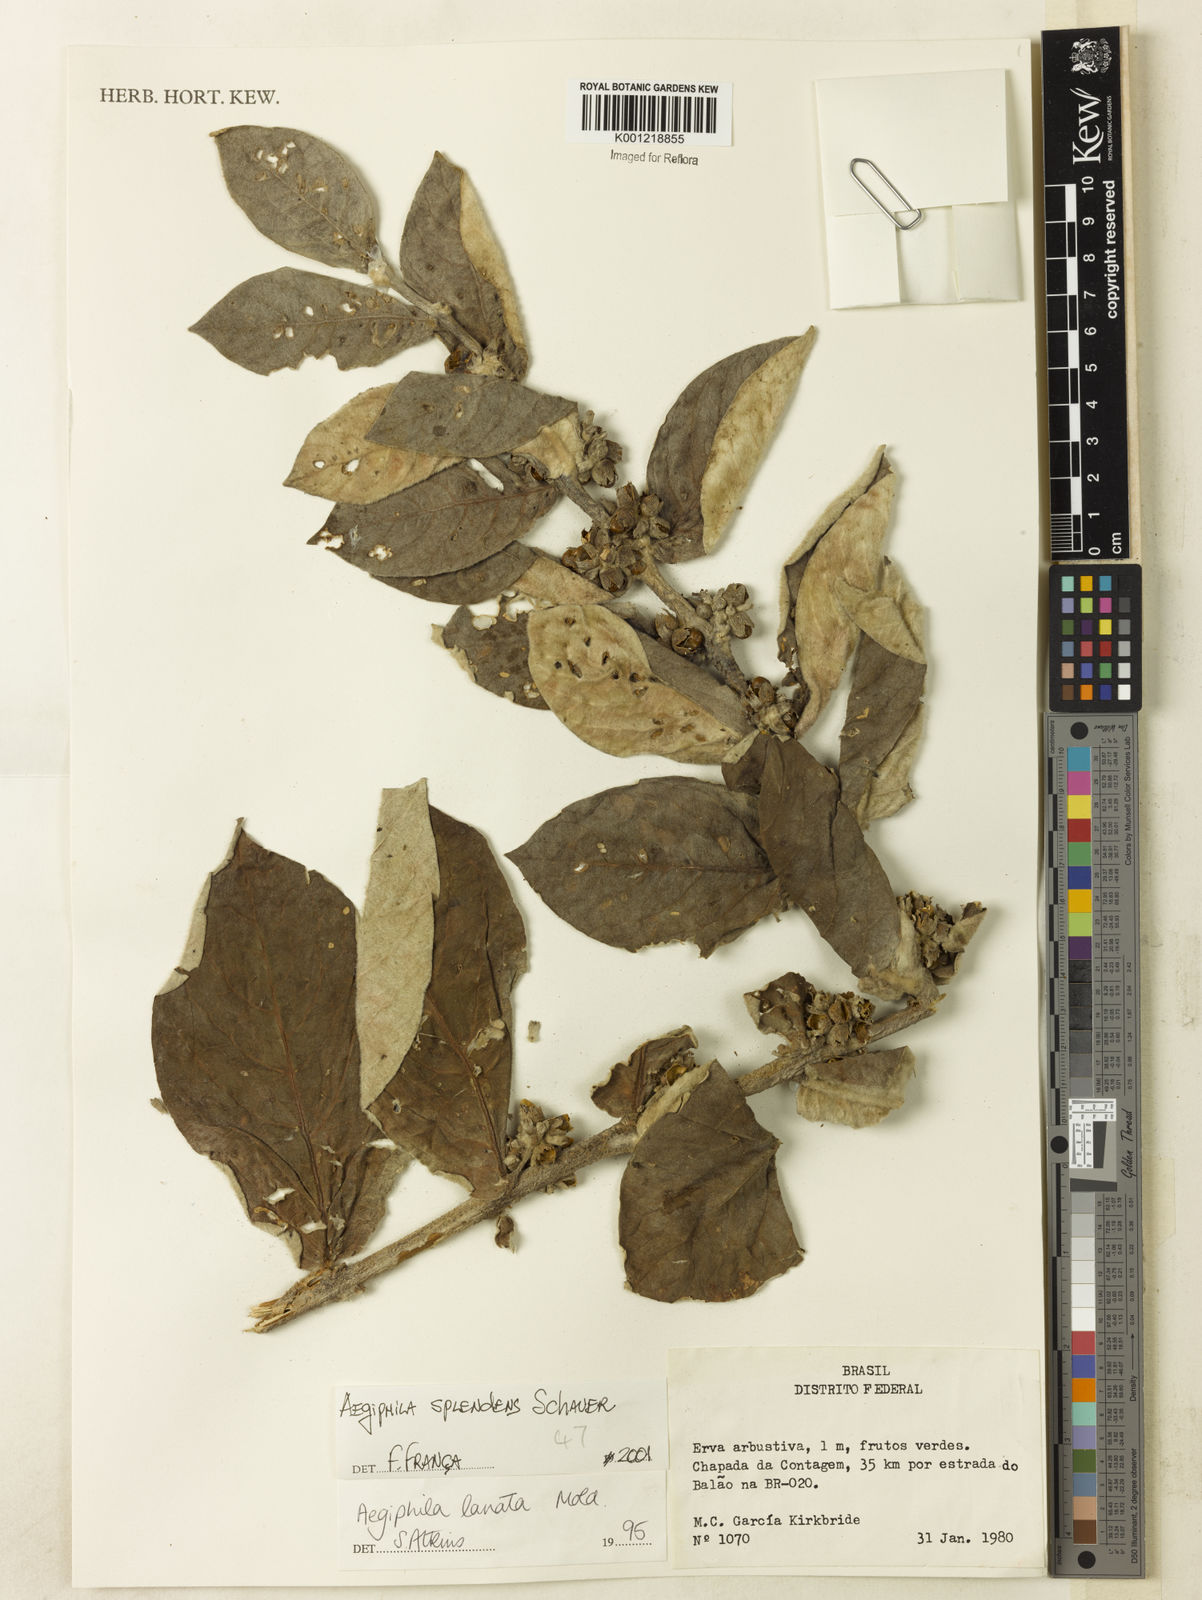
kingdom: Plantae
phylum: Tracheophyta
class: Magnoliopsida
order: Lamiales
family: Lamiaceae
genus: Aegiphila
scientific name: Aegiphila verticillata
